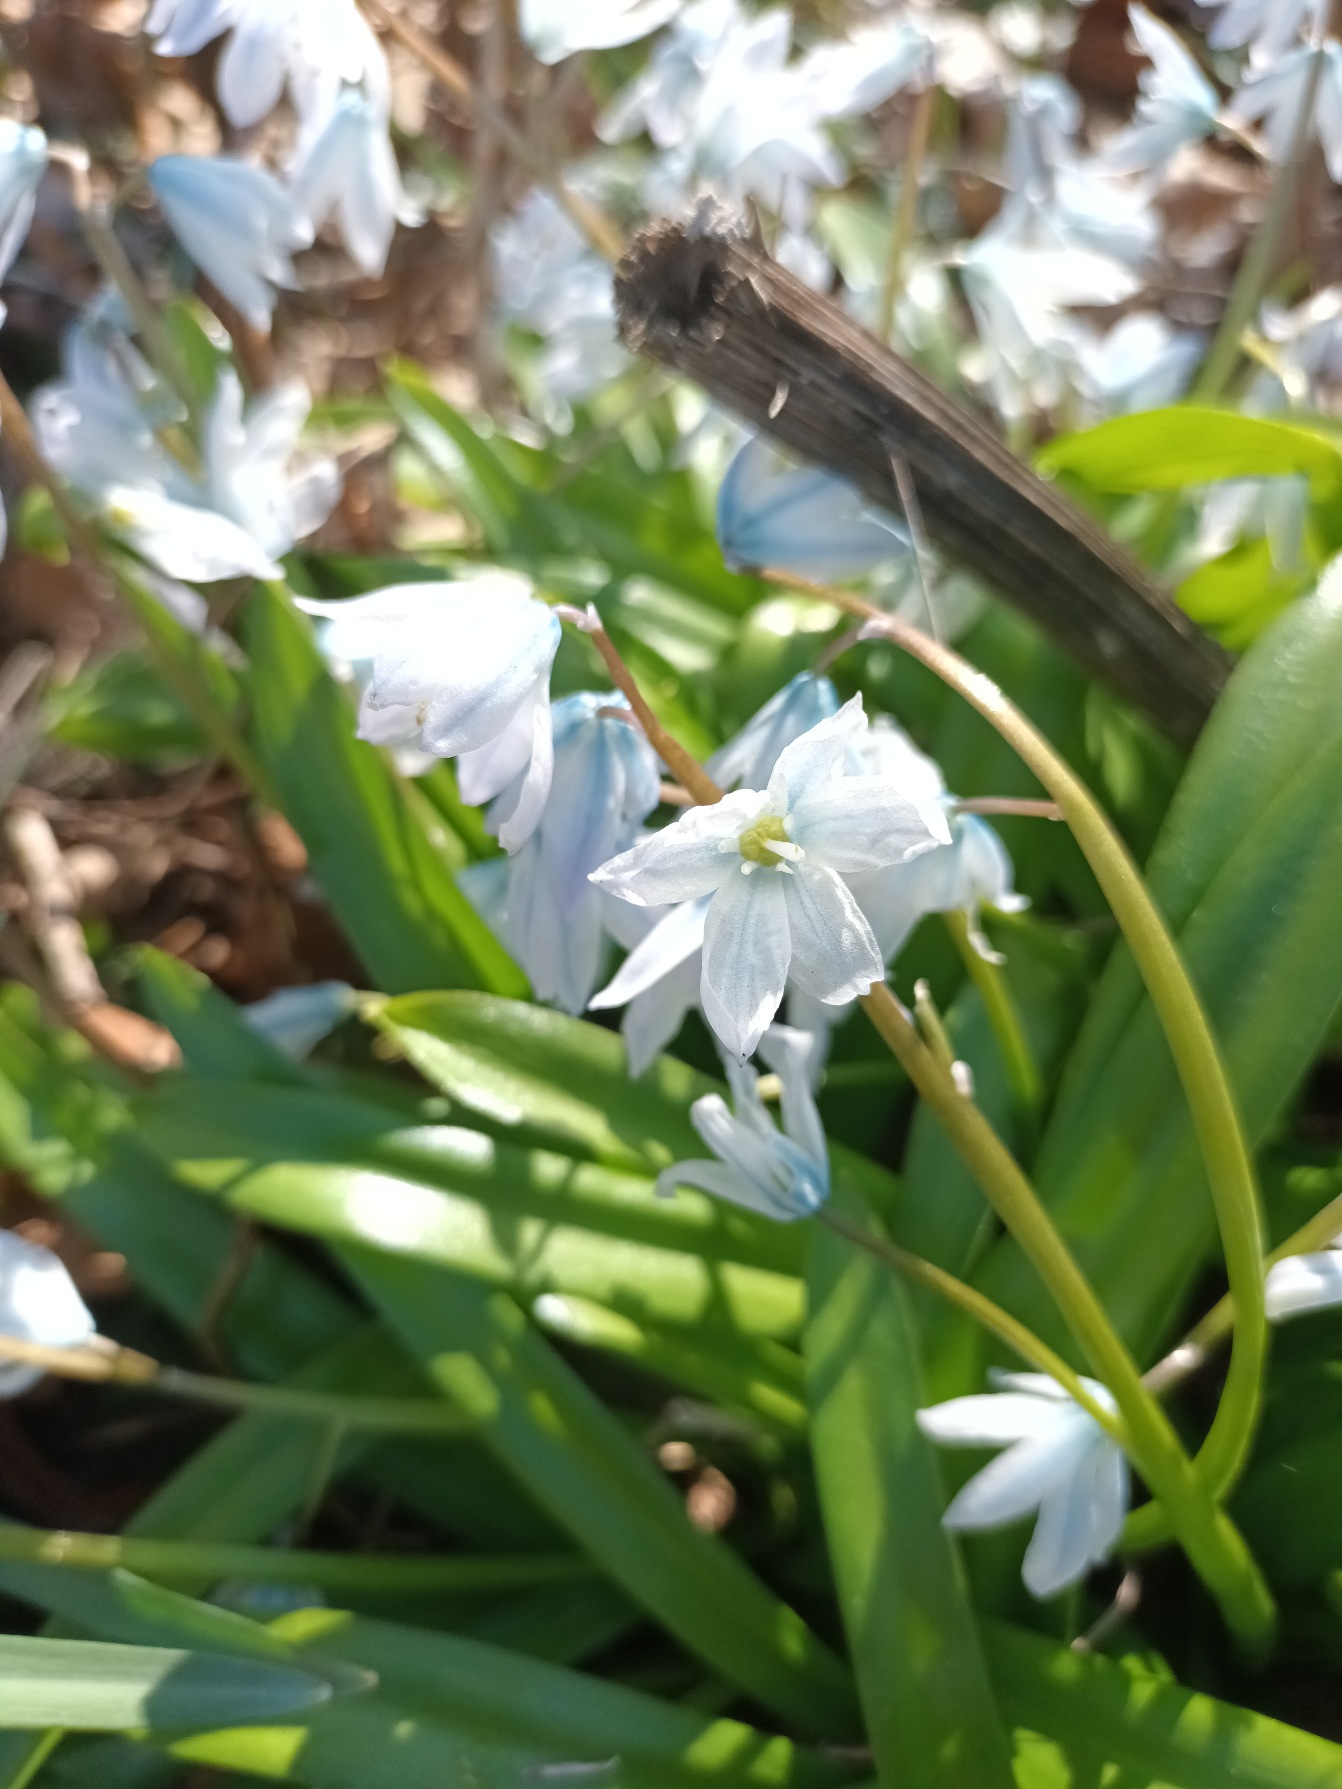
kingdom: Plantae
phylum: Tracheophyta
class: Liliopsida
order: Asparagales
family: Asparagaceae
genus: Scilla
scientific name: Scilla mischtschenkoana
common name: Persisk skilla
